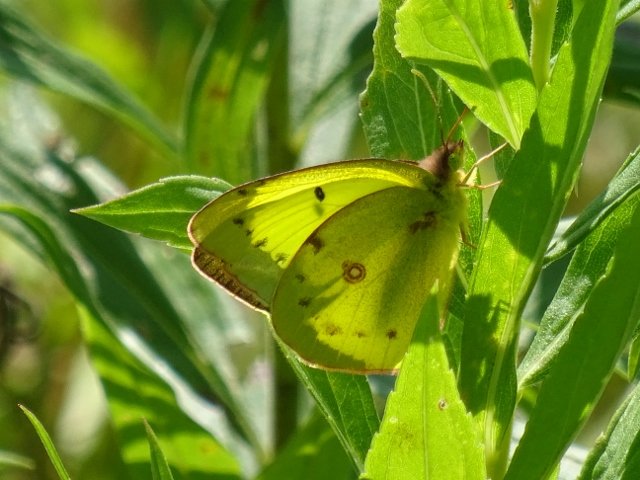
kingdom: Animalia
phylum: Arthropoda
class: Insecta
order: Lepidoptera
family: Pieridae
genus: Colias
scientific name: Colias philodice
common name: Clouded Sulphur
